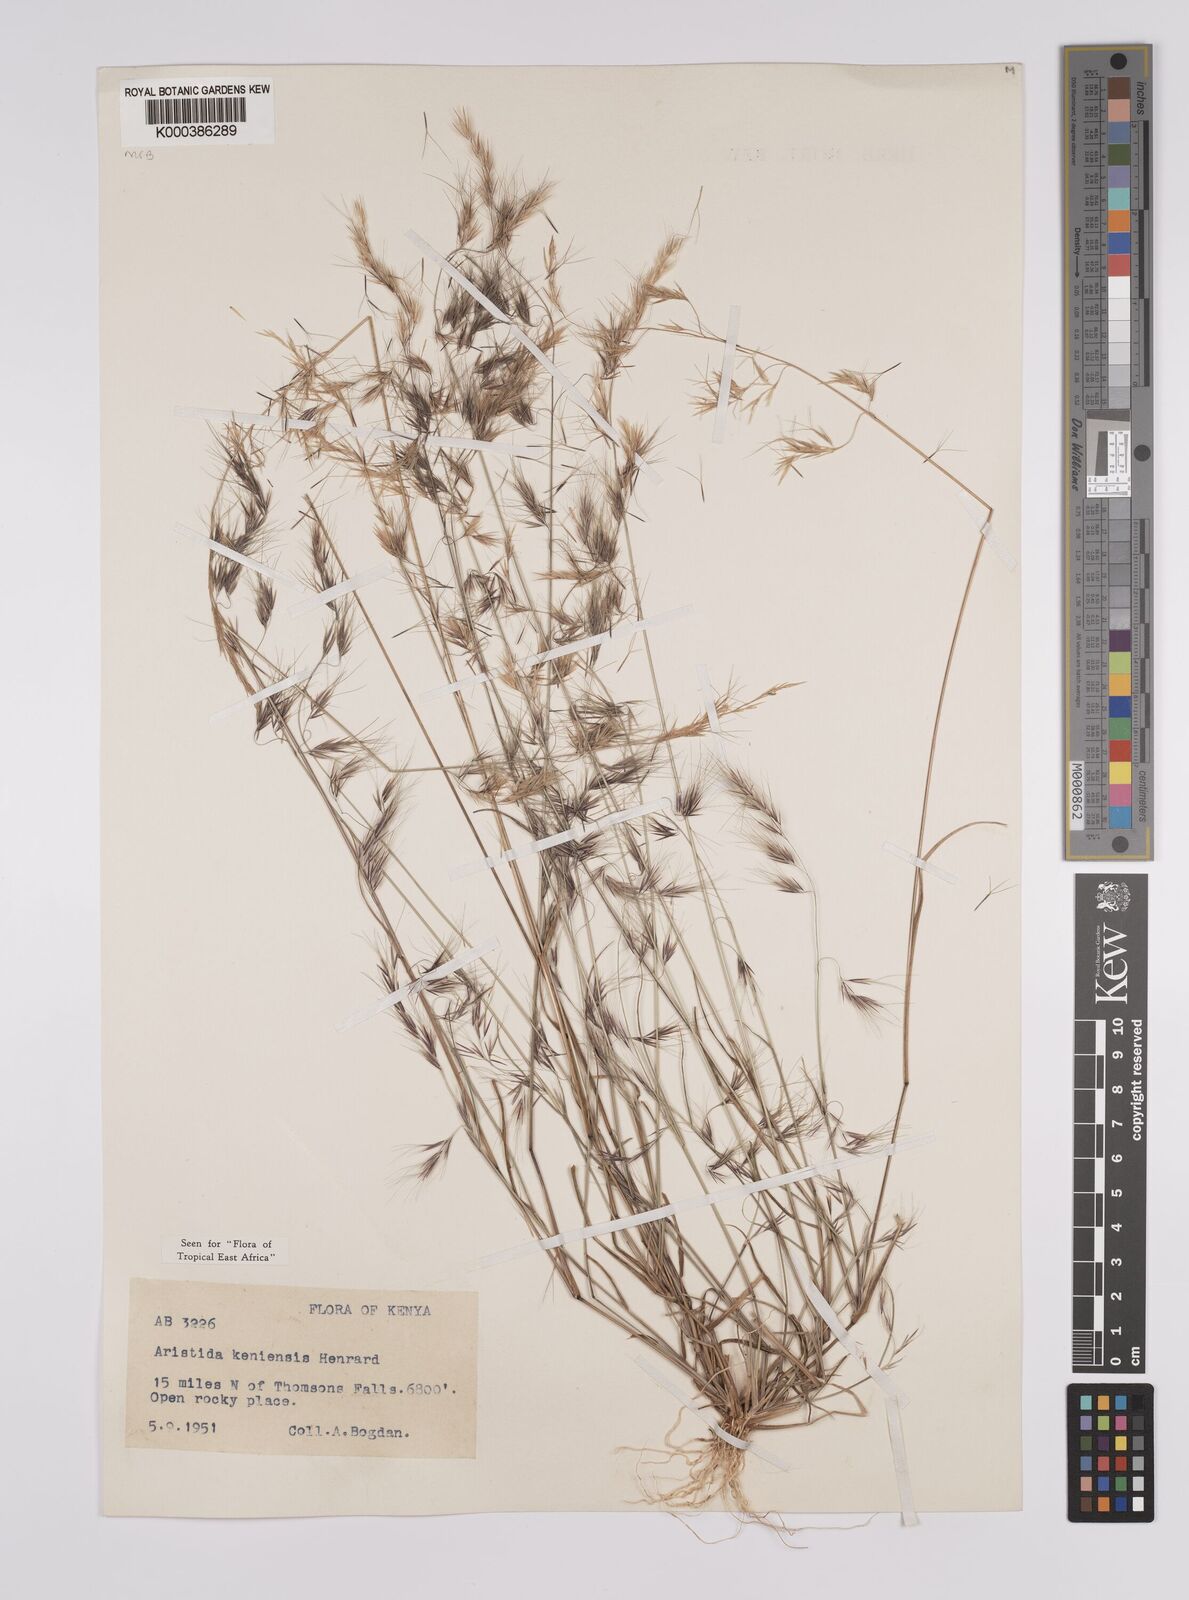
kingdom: Plantae
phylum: Tracheophyta
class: Liliopsida
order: Poales
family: Poaceae
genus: Aristida
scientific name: Aristida kenyensis
